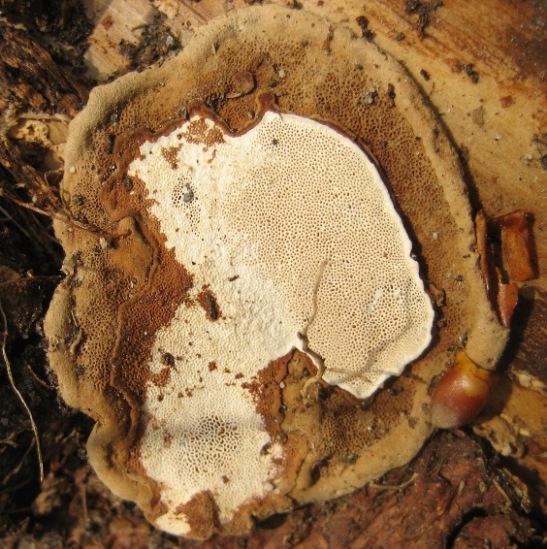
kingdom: Fungi
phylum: Basidiomycota
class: Agaricomycetes
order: Russulales
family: Bondarzewiaceae
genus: Heterobasidion
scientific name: Heterobasidion annosum
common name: almindelig rodfordærver
